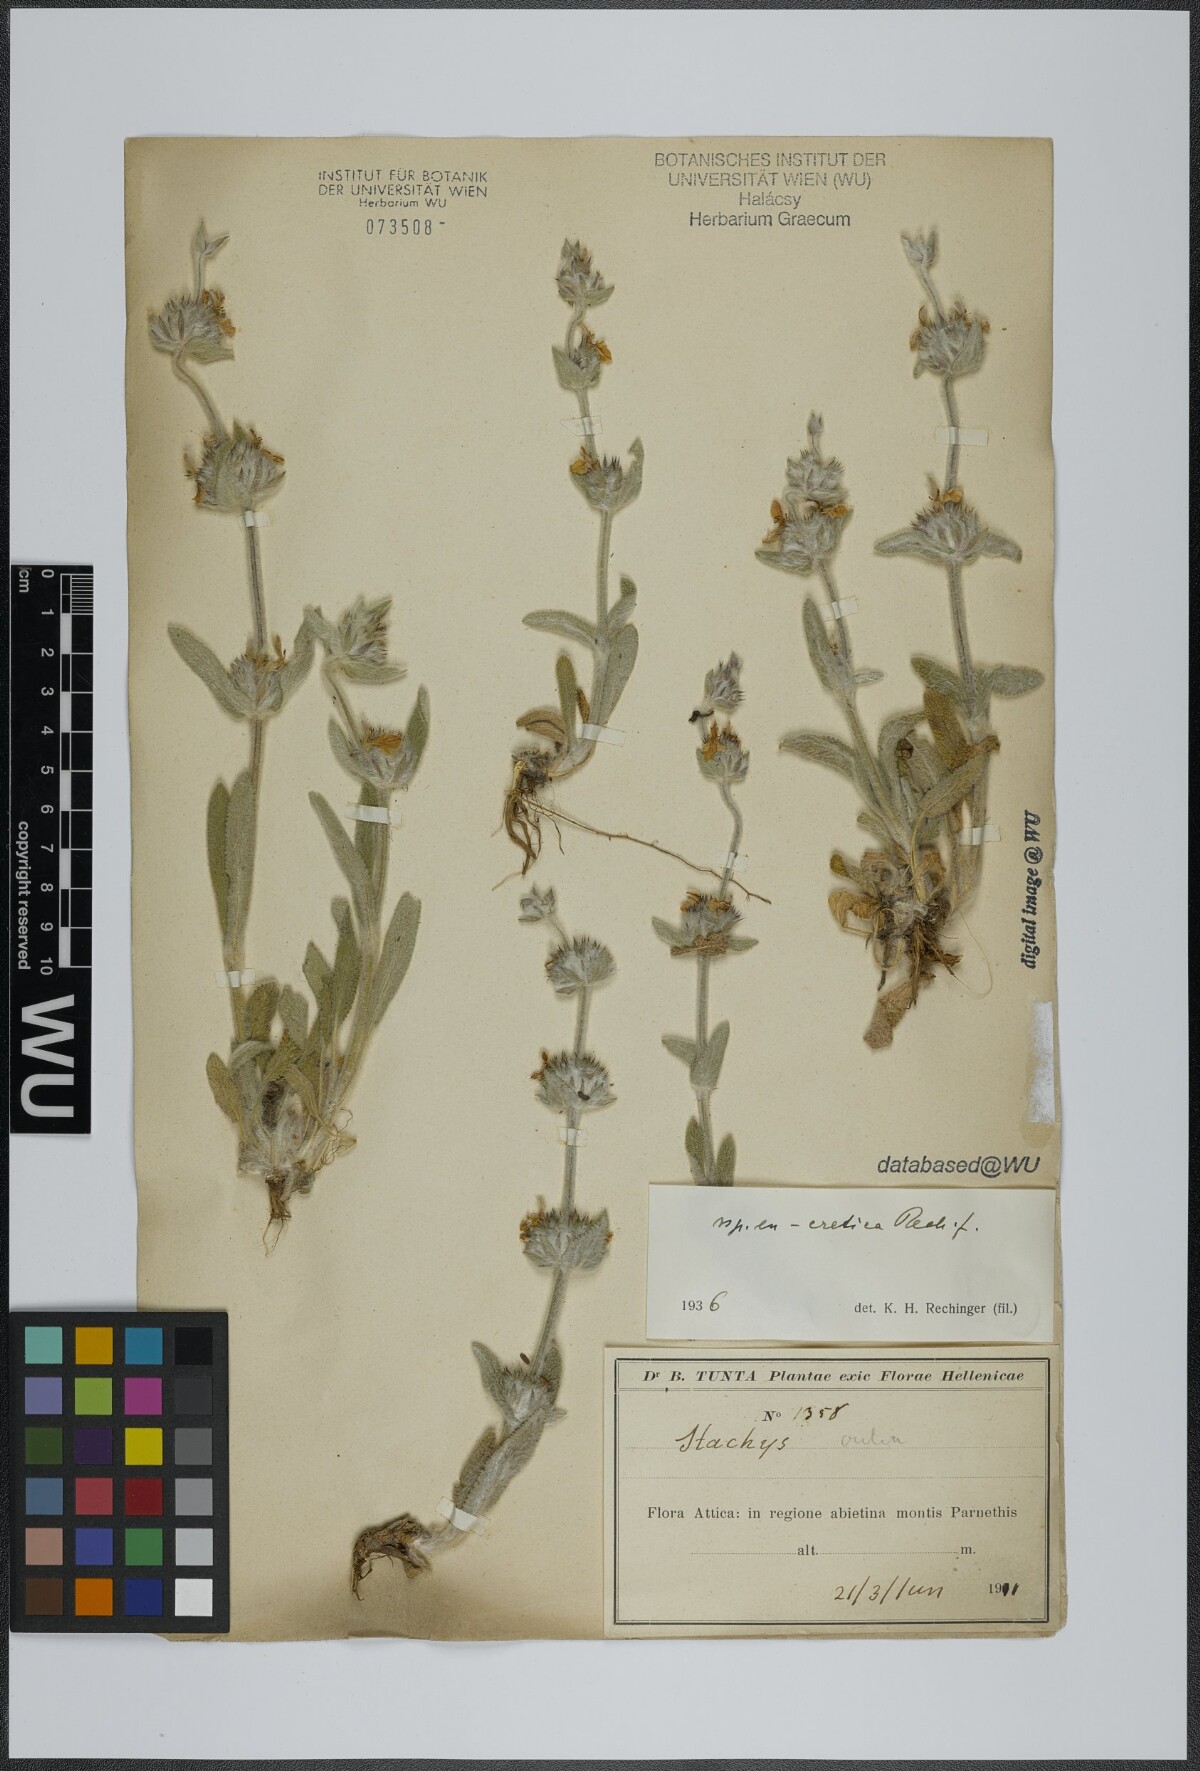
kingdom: Plantae
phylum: Tracheophyta
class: Magnoliopsida
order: Lamiales
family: Lamiaceae
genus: Stachys
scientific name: Stachys cretica
